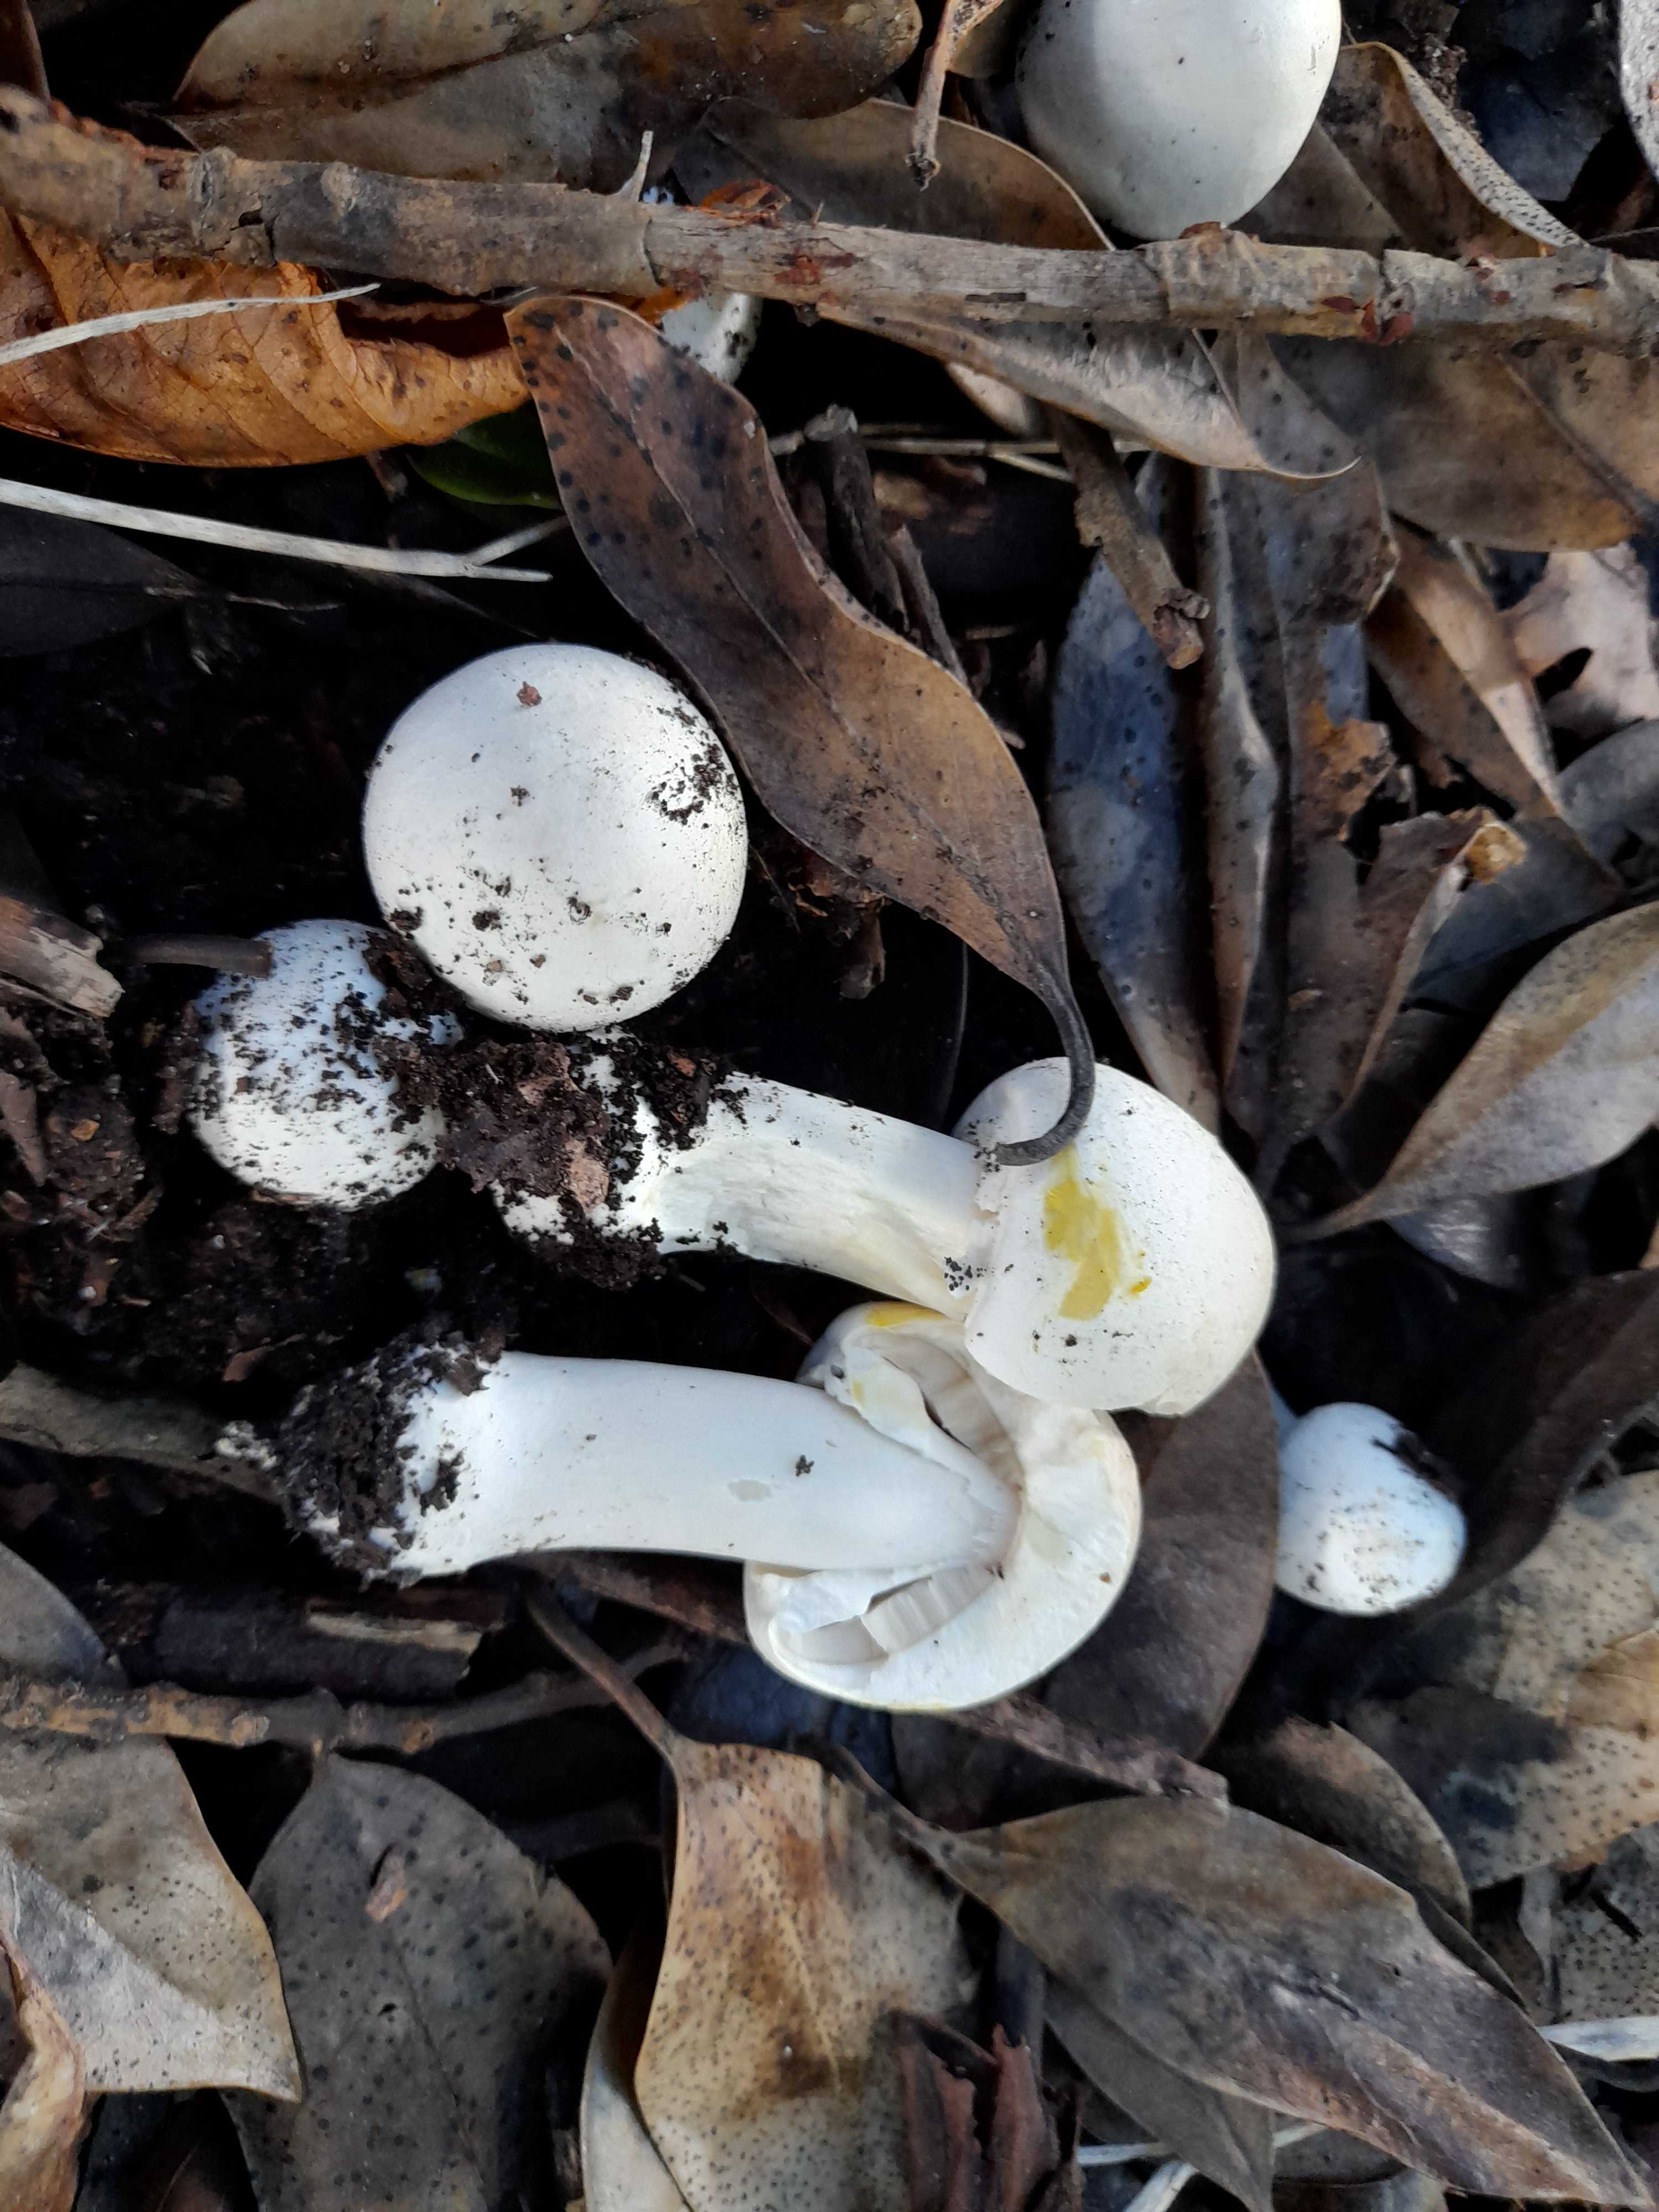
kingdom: Fungi
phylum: Basidiomycota
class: Agaricomycetes
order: Agaricales
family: Agaricaceae
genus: Agaricus
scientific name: Agaricus xanthodermus
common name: karbol-champignon
